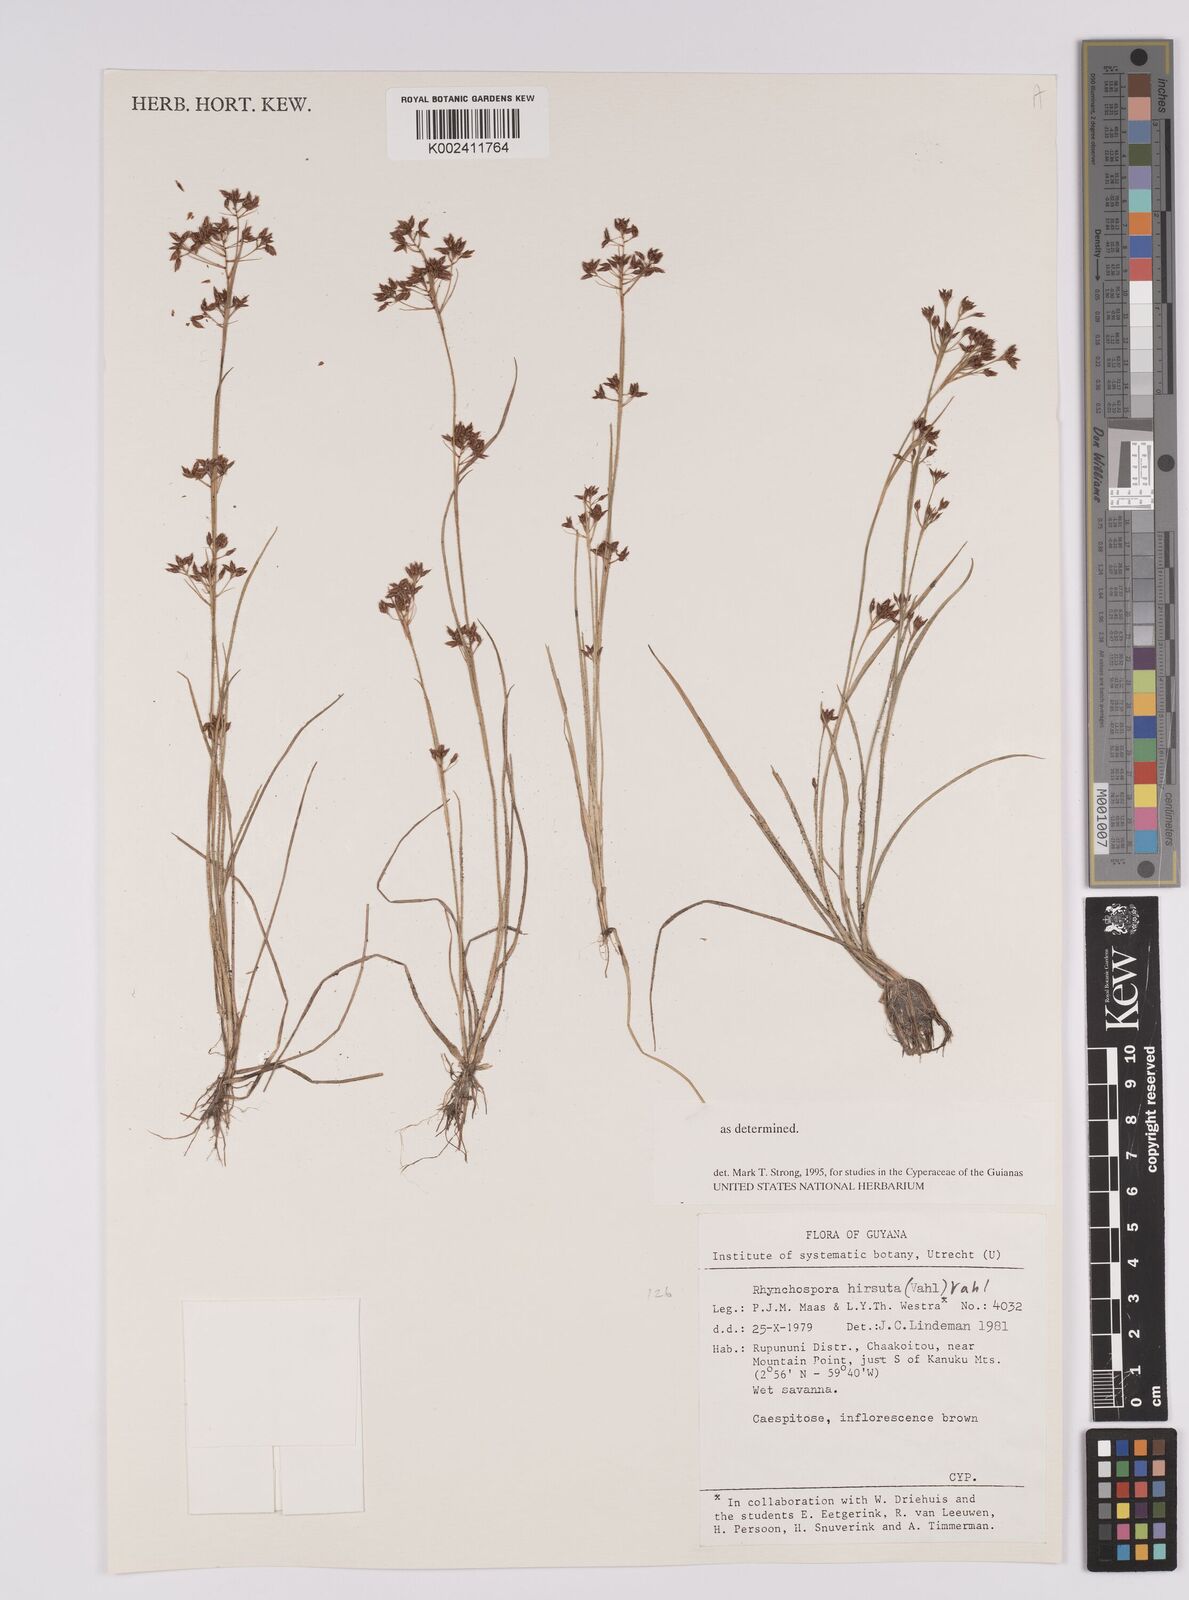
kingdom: Plantae
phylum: Tracheophyta
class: Liliopsida
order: Poales
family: Cyperaceae
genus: Rhynchospora
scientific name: Rhynchospora hirsuta
